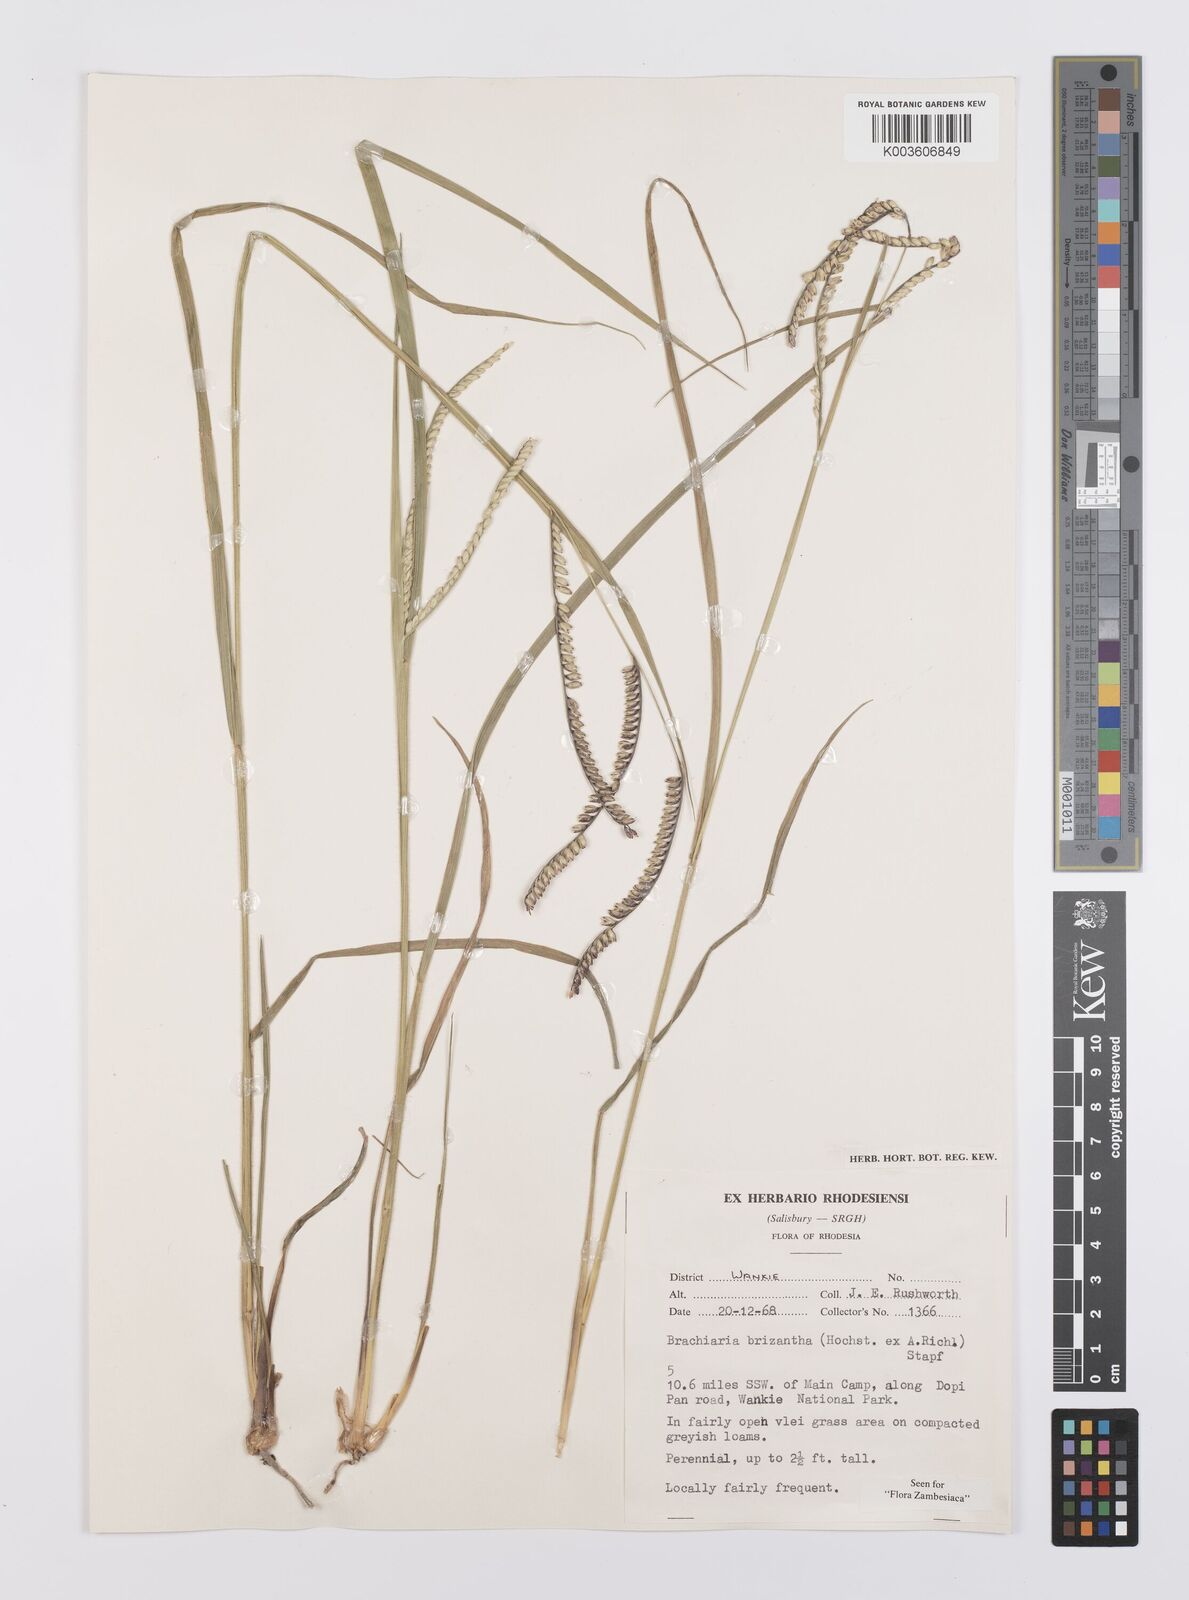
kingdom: Plantae
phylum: Tracheophyta
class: Liliopsida
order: Poales
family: Poaceae
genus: Urochloa
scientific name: Urochloa brizantha
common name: Palisade signalgrass
